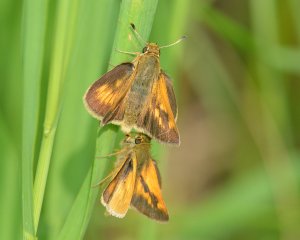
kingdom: Animalia
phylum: Arthropoda
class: Insecta
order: Lepidoptera
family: Hesperiidae
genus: Polites
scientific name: Polites
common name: Long Dash Skipper
